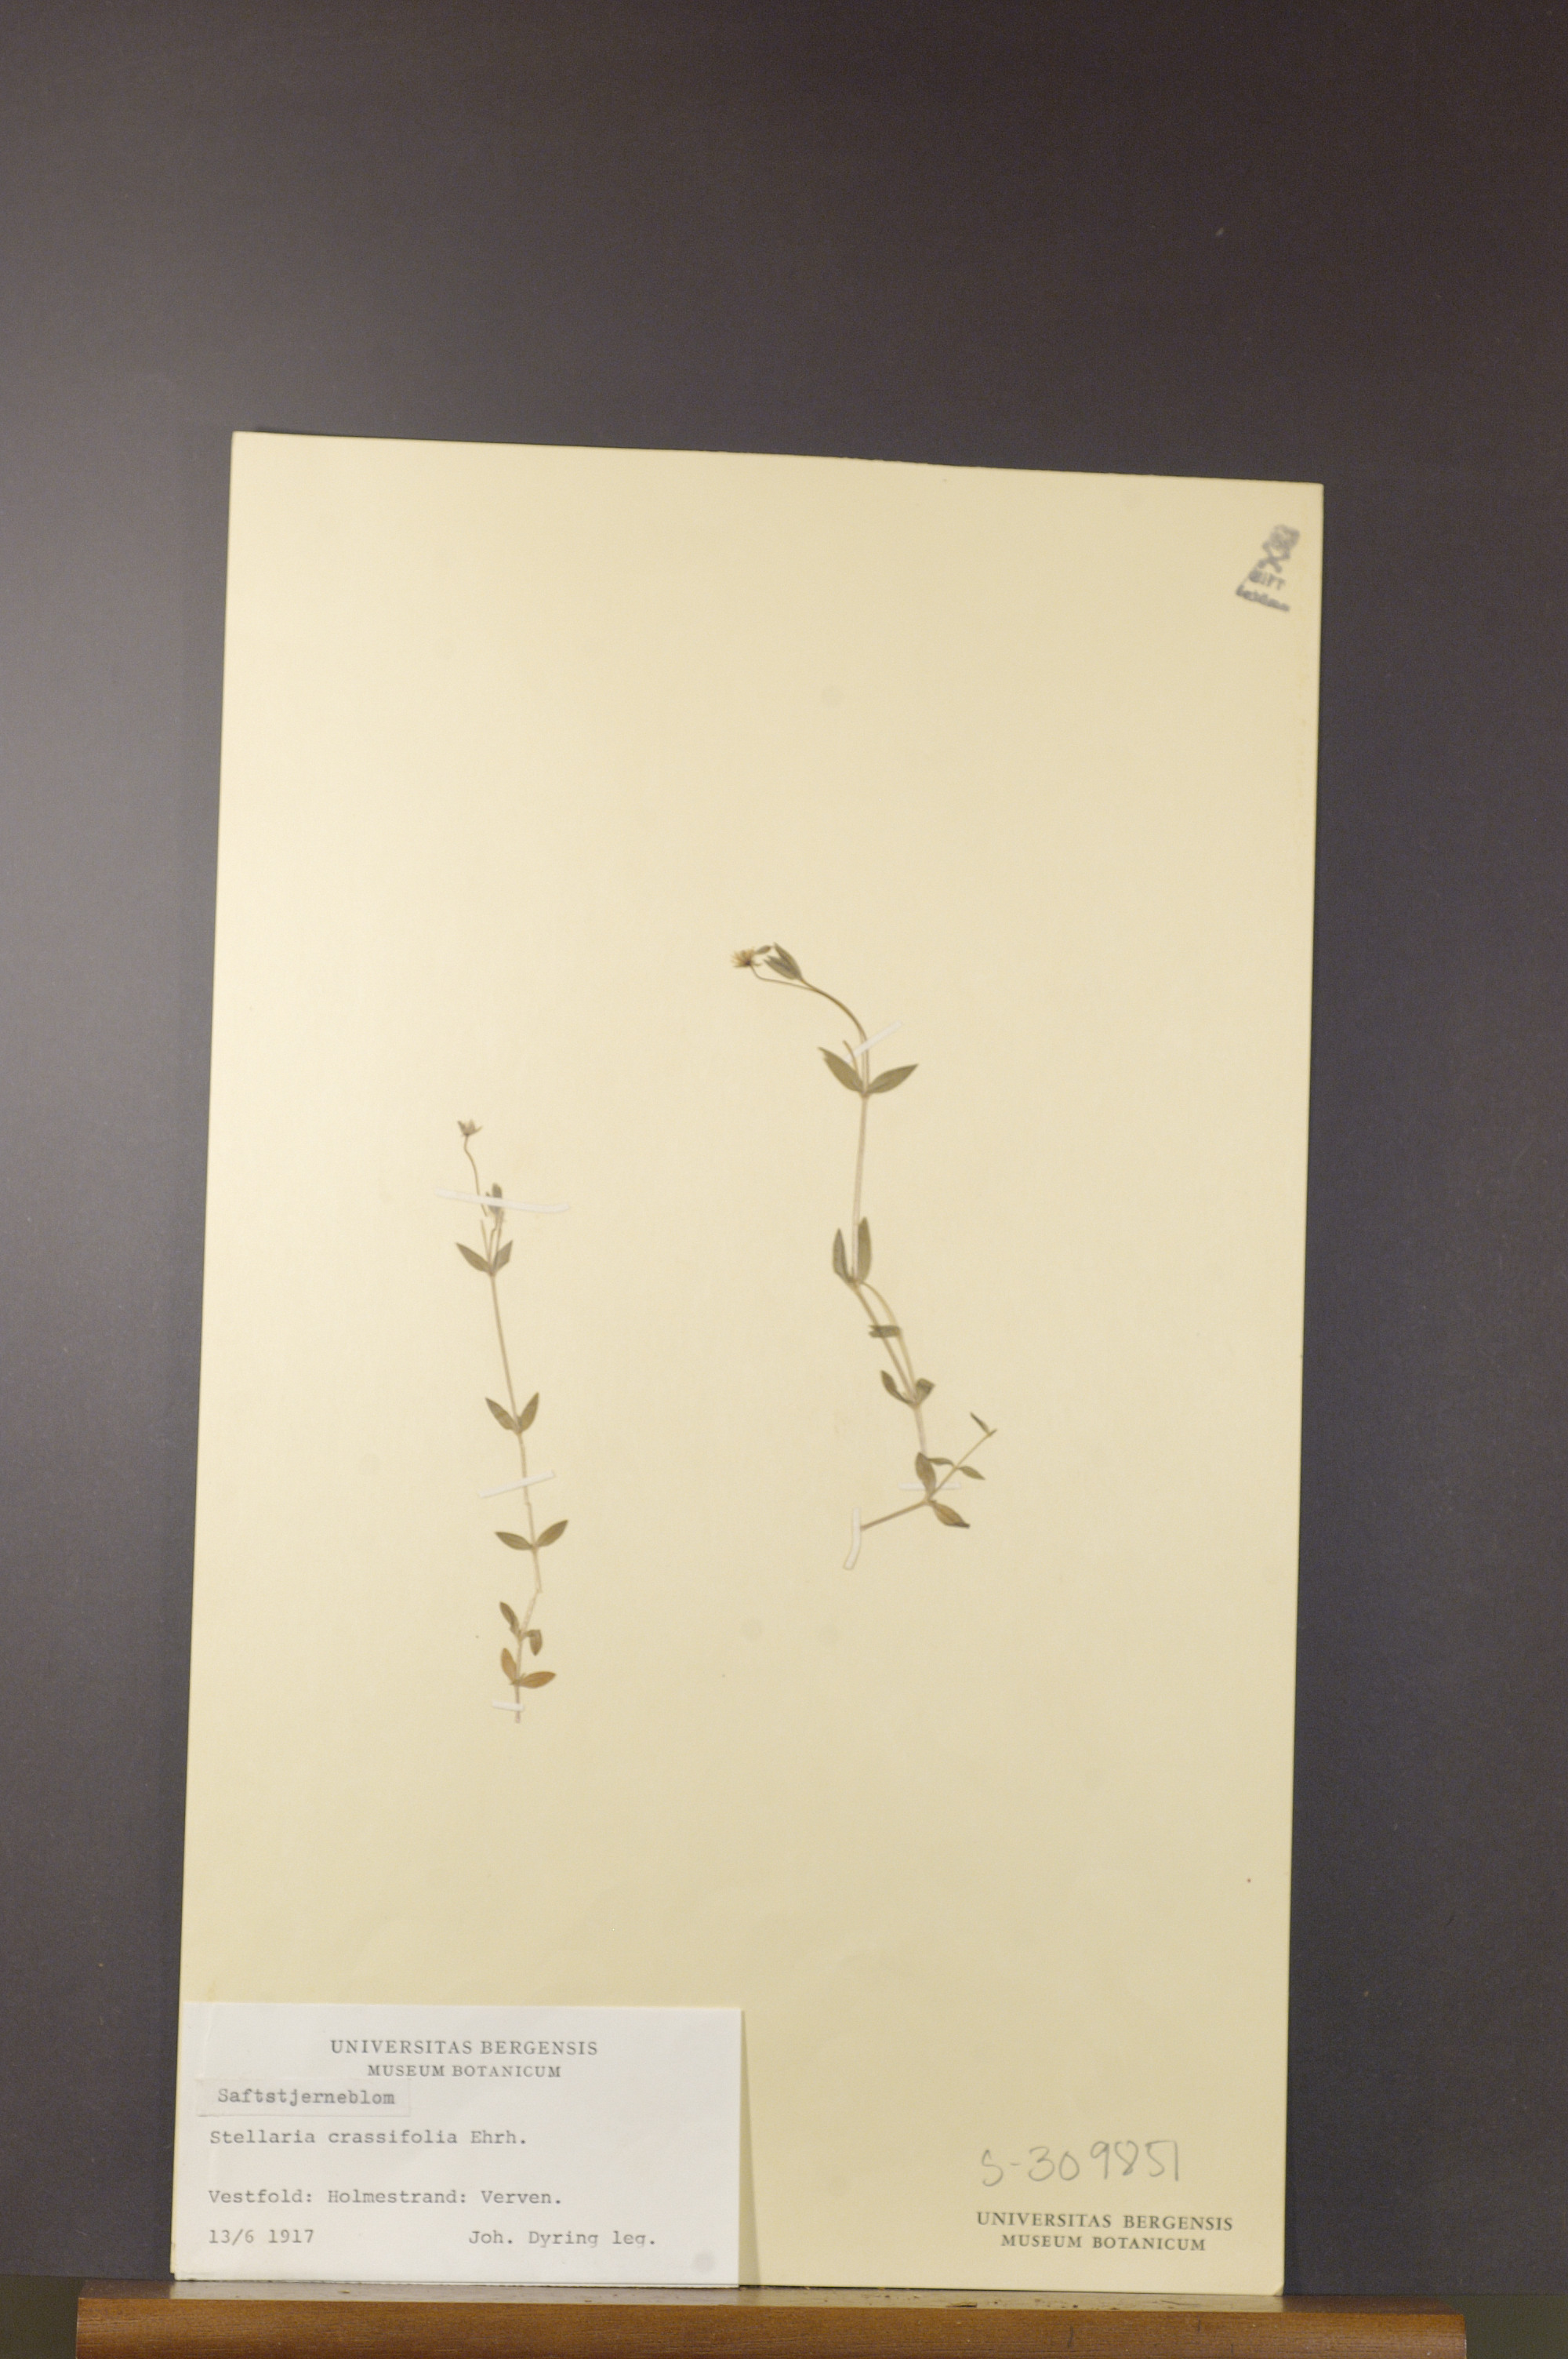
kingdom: Plantae
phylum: Tracheophyta
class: Magnoliopsida
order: Caryophyllales
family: Caryophyllaceae
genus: Stellaria
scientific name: Stellaria crassifolia
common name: Fleshy starwort
